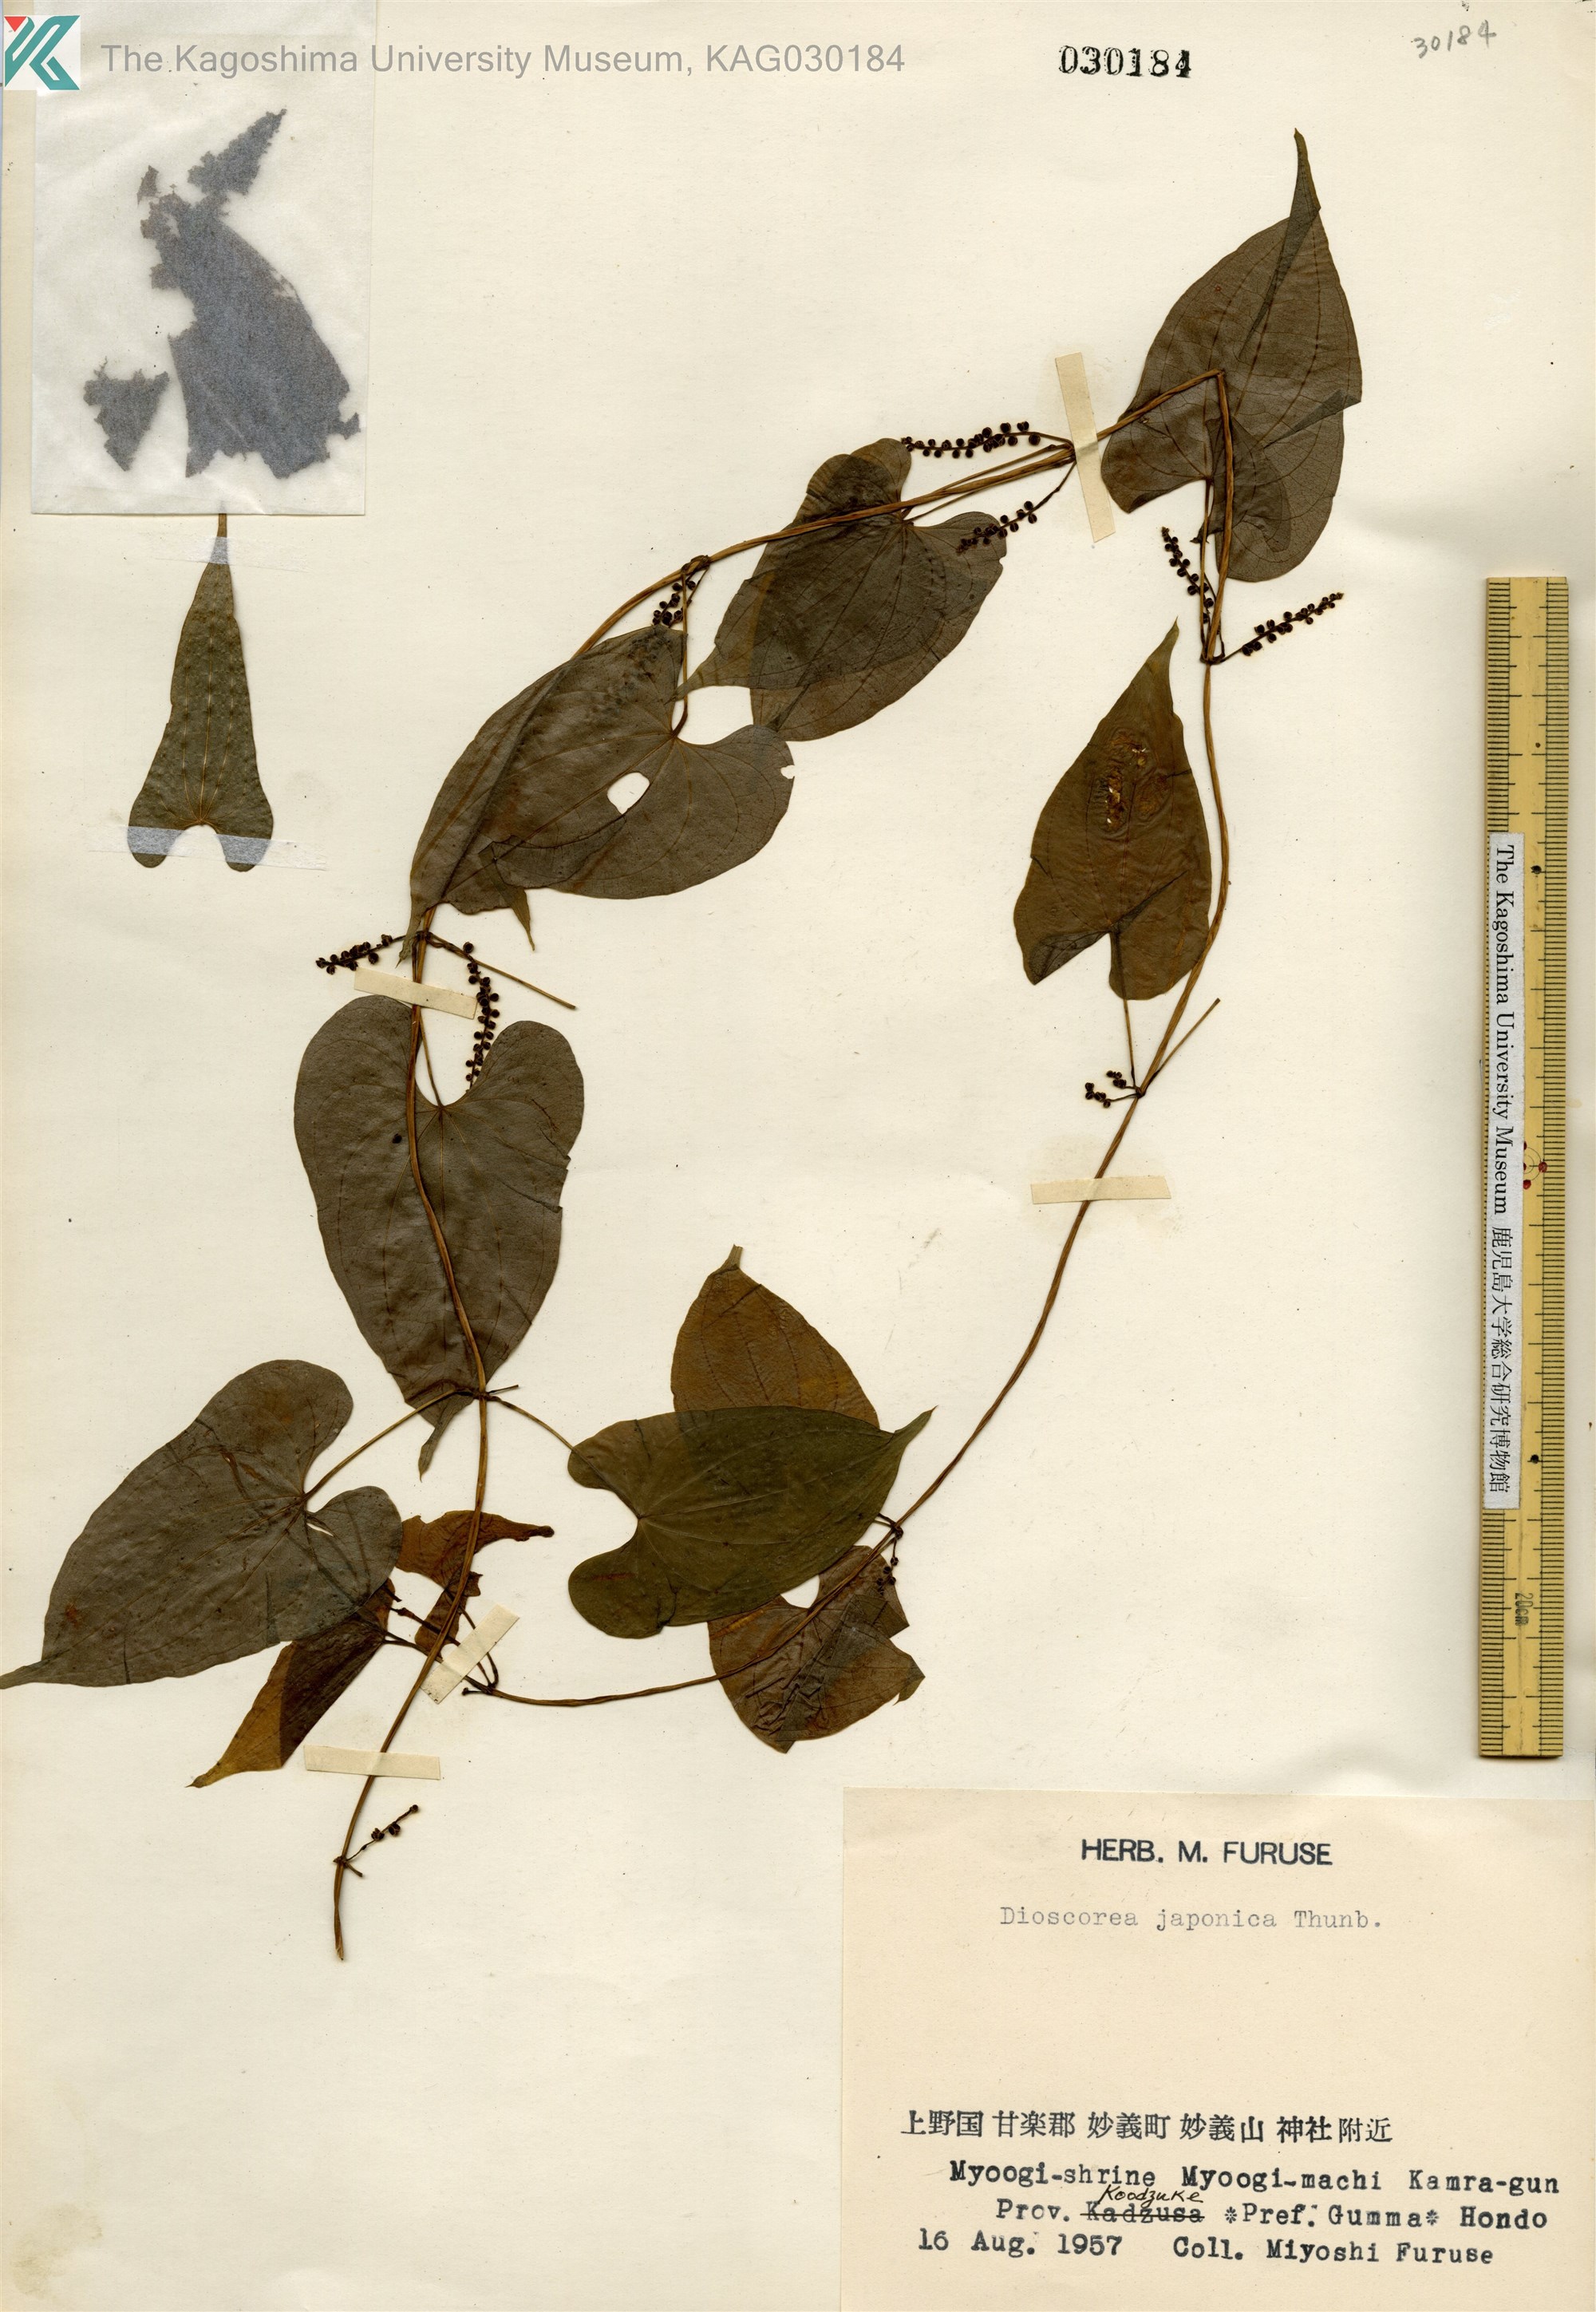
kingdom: Plantae
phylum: Tracheophyta
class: Liliopsida
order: Dioscoreales
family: Dioscoreaceae
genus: Dioscorea
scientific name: Dioscorea japonica
